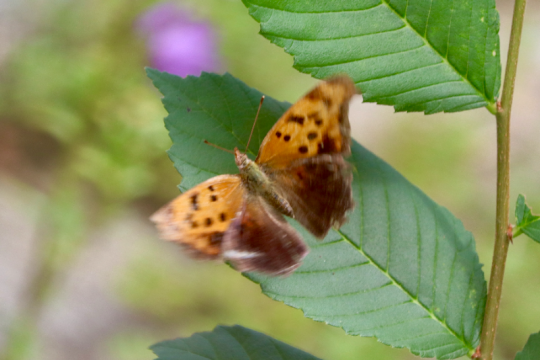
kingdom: Animalia
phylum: Arthropoda
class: Insecta
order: Lepidoptera
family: Nymphalidae
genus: Polygonia
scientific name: Polygonia interrogationis
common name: Question Mark
